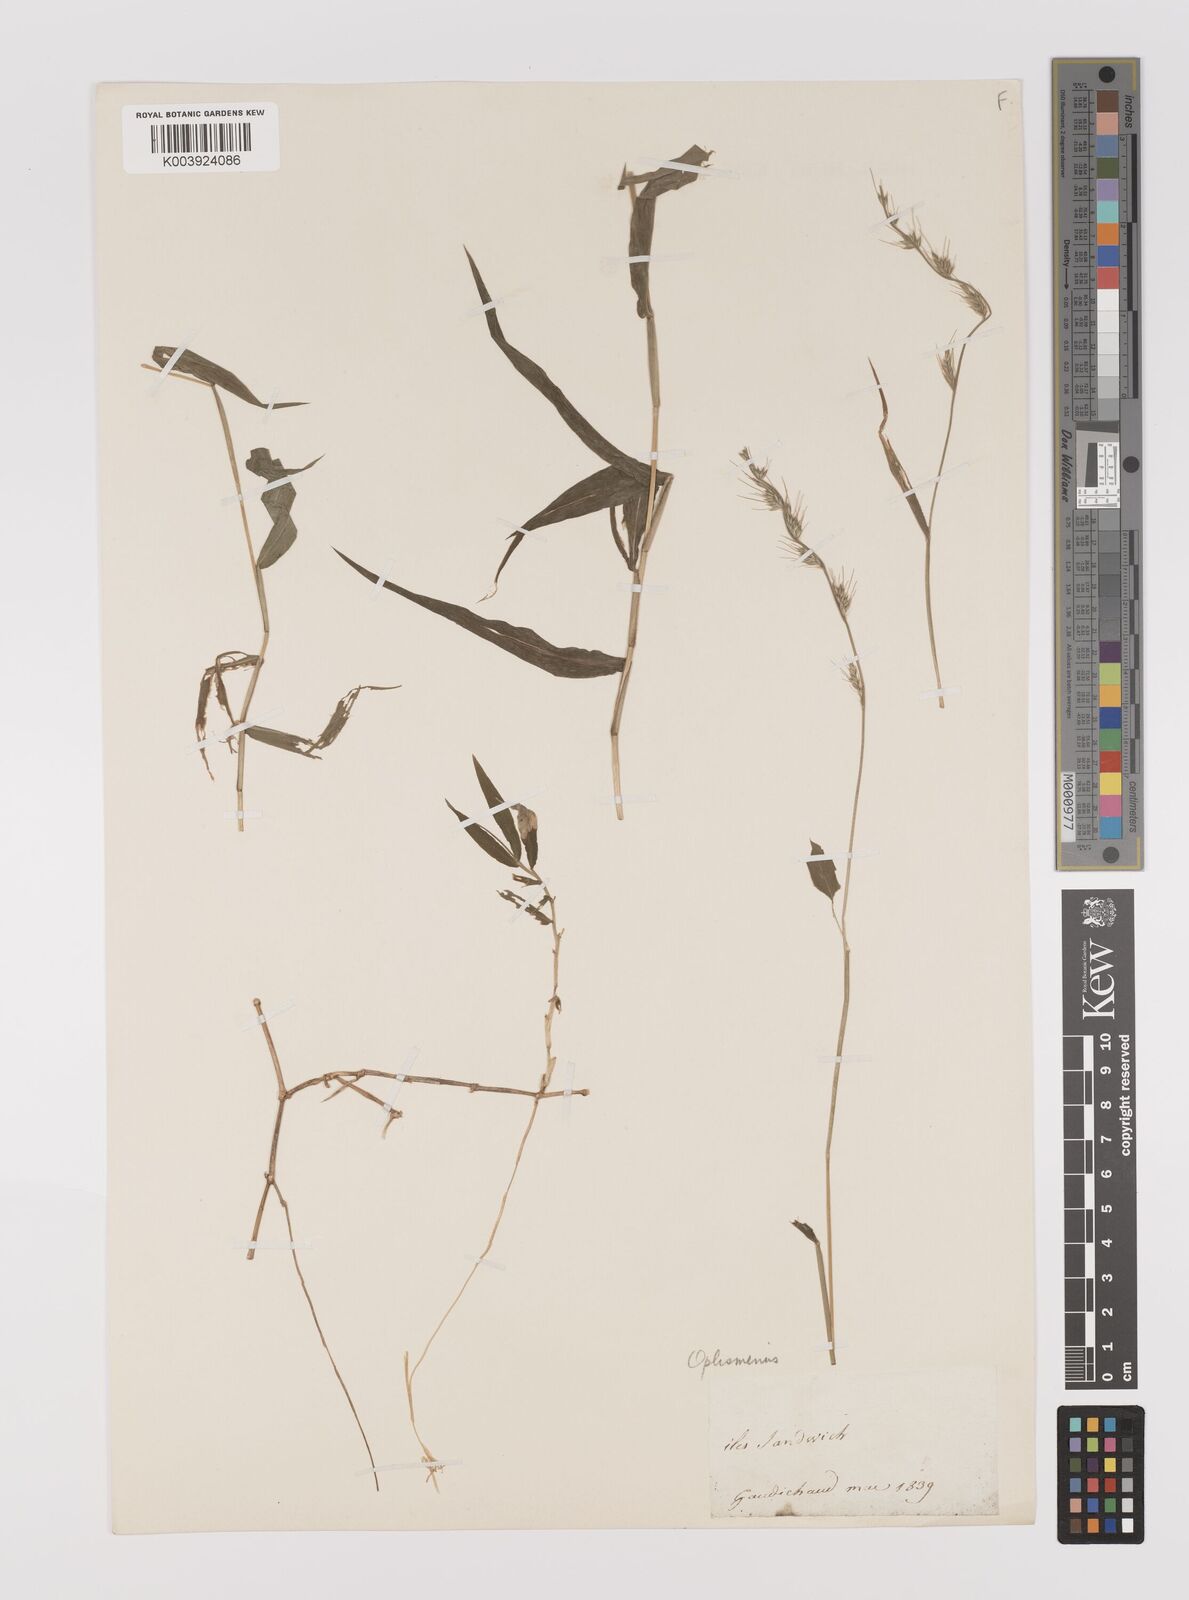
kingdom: Plantae
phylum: Tracheophyta
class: Liliopsida
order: Poales
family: Poaceae
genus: Oplismenus
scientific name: Oplismenus hirtellus
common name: Basketgrass
